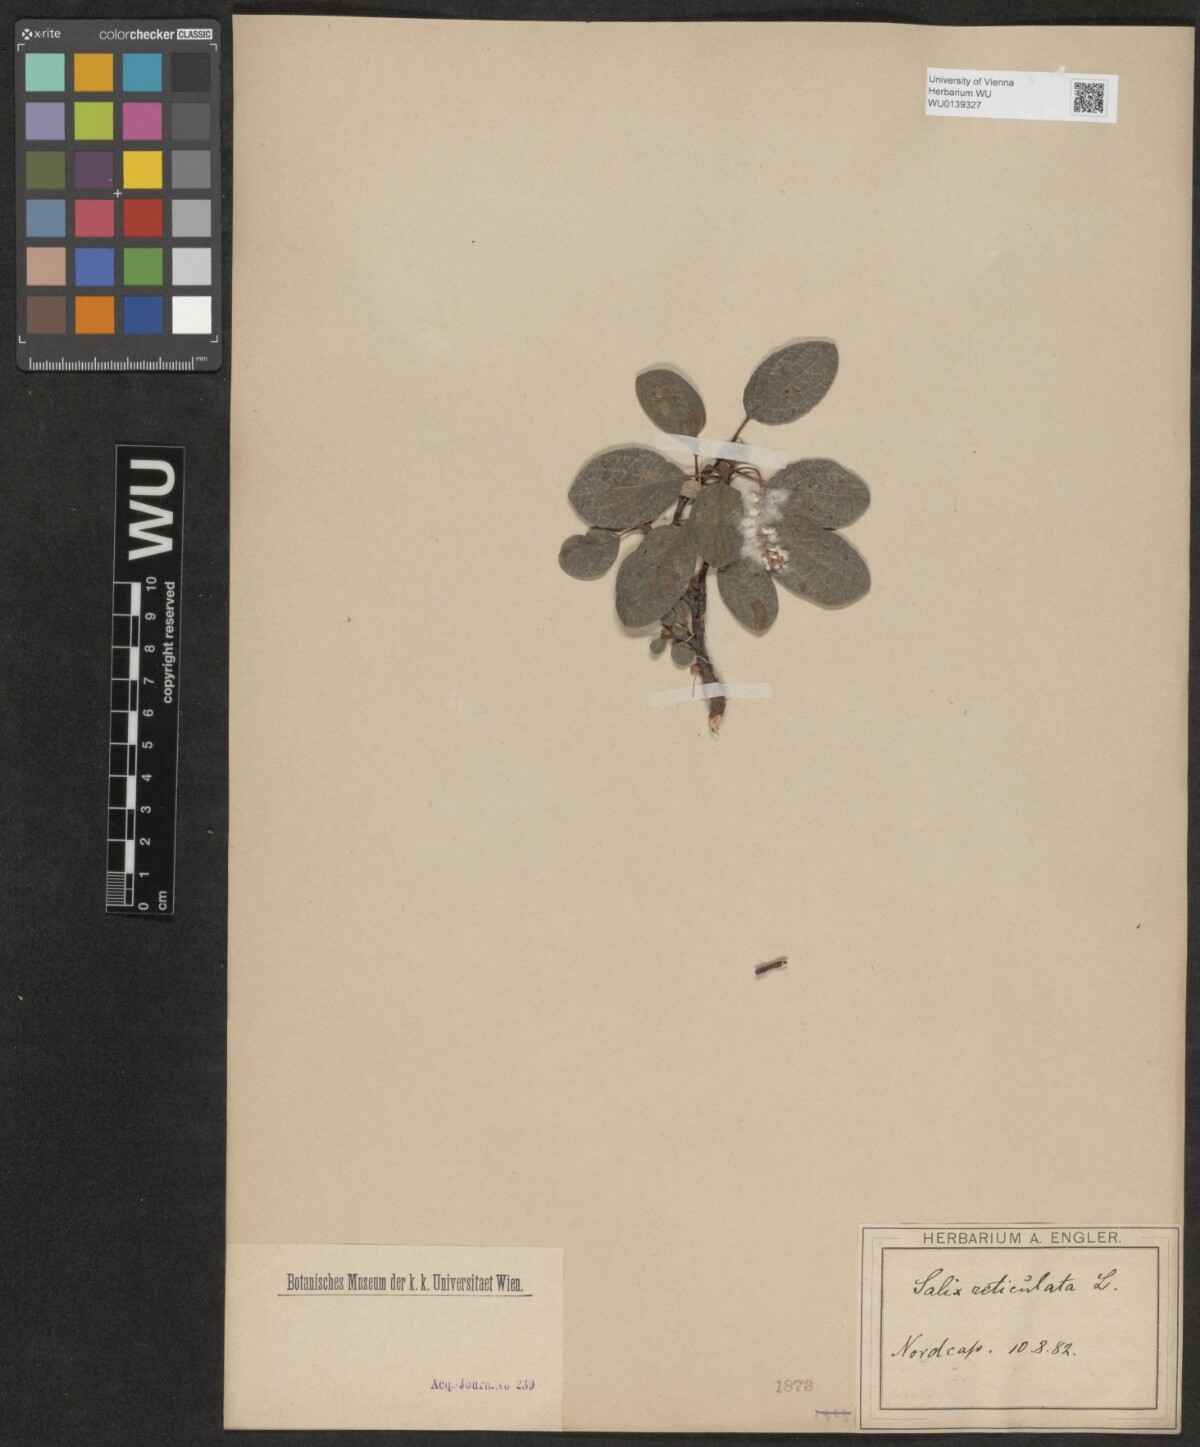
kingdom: Plantae
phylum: Tracheophyta
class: Magnoliopsida
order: Malpighiales
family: Salicaceae
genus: Salix
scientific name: Salix reticulata
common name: Net-leaved willow
